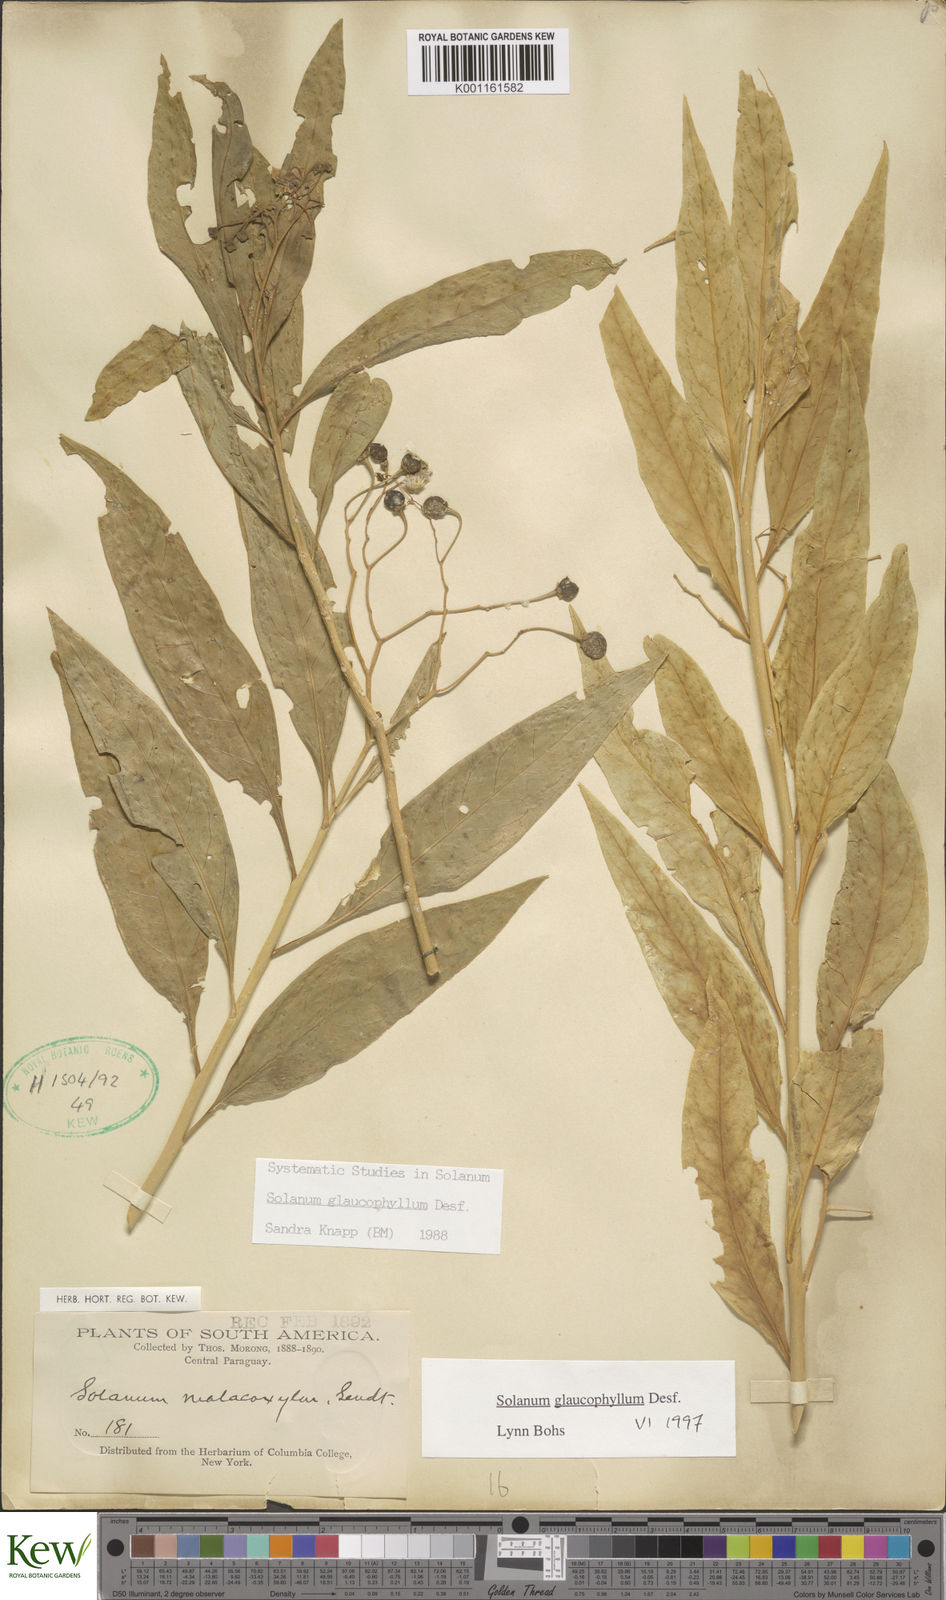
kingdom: Plantae
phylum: Tracheophyta
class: Magnoliopsida
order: Solanales
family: Solanaceae
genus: Solanum
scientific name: Solanum glaucophyllum
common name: Waxyleaf nightshade
